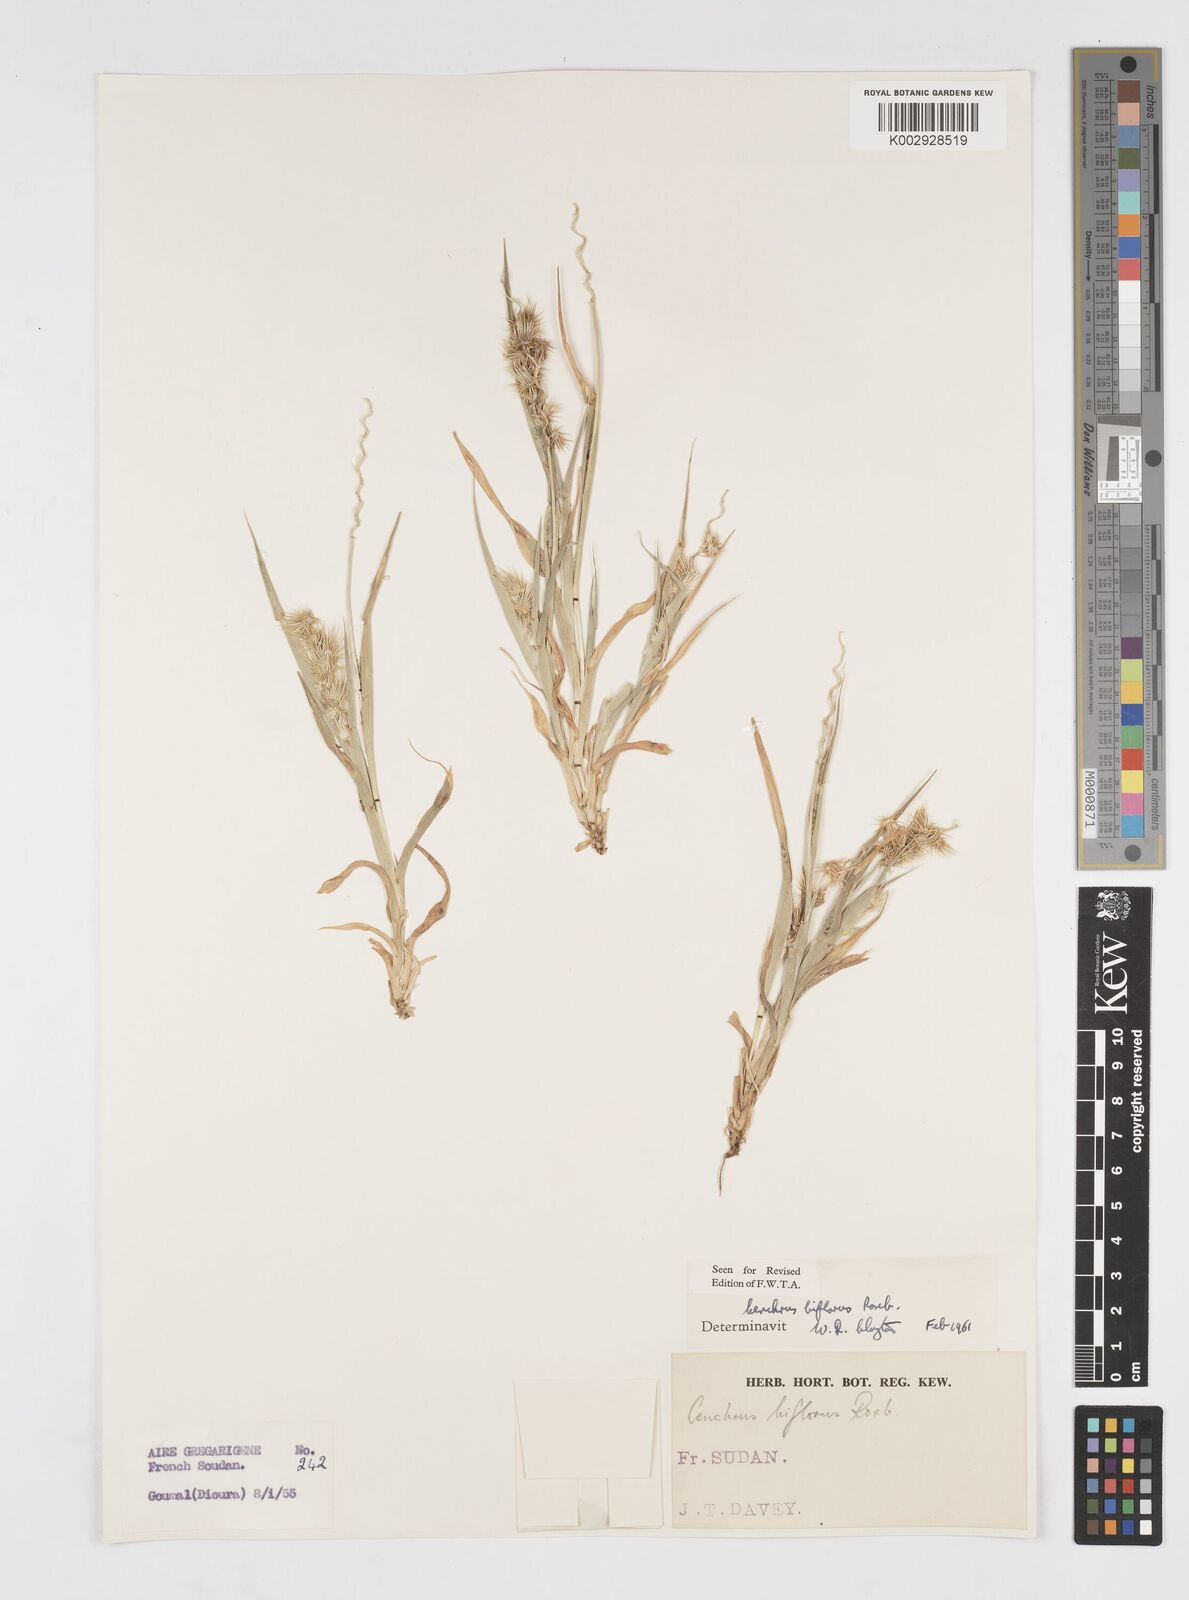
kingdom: Plantae
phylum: Tracheophyta
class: Liliopsida
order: Poales
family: Poaceae
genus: Cenchrus
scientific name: Cenchrus biflorus
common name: Indian sandbur
